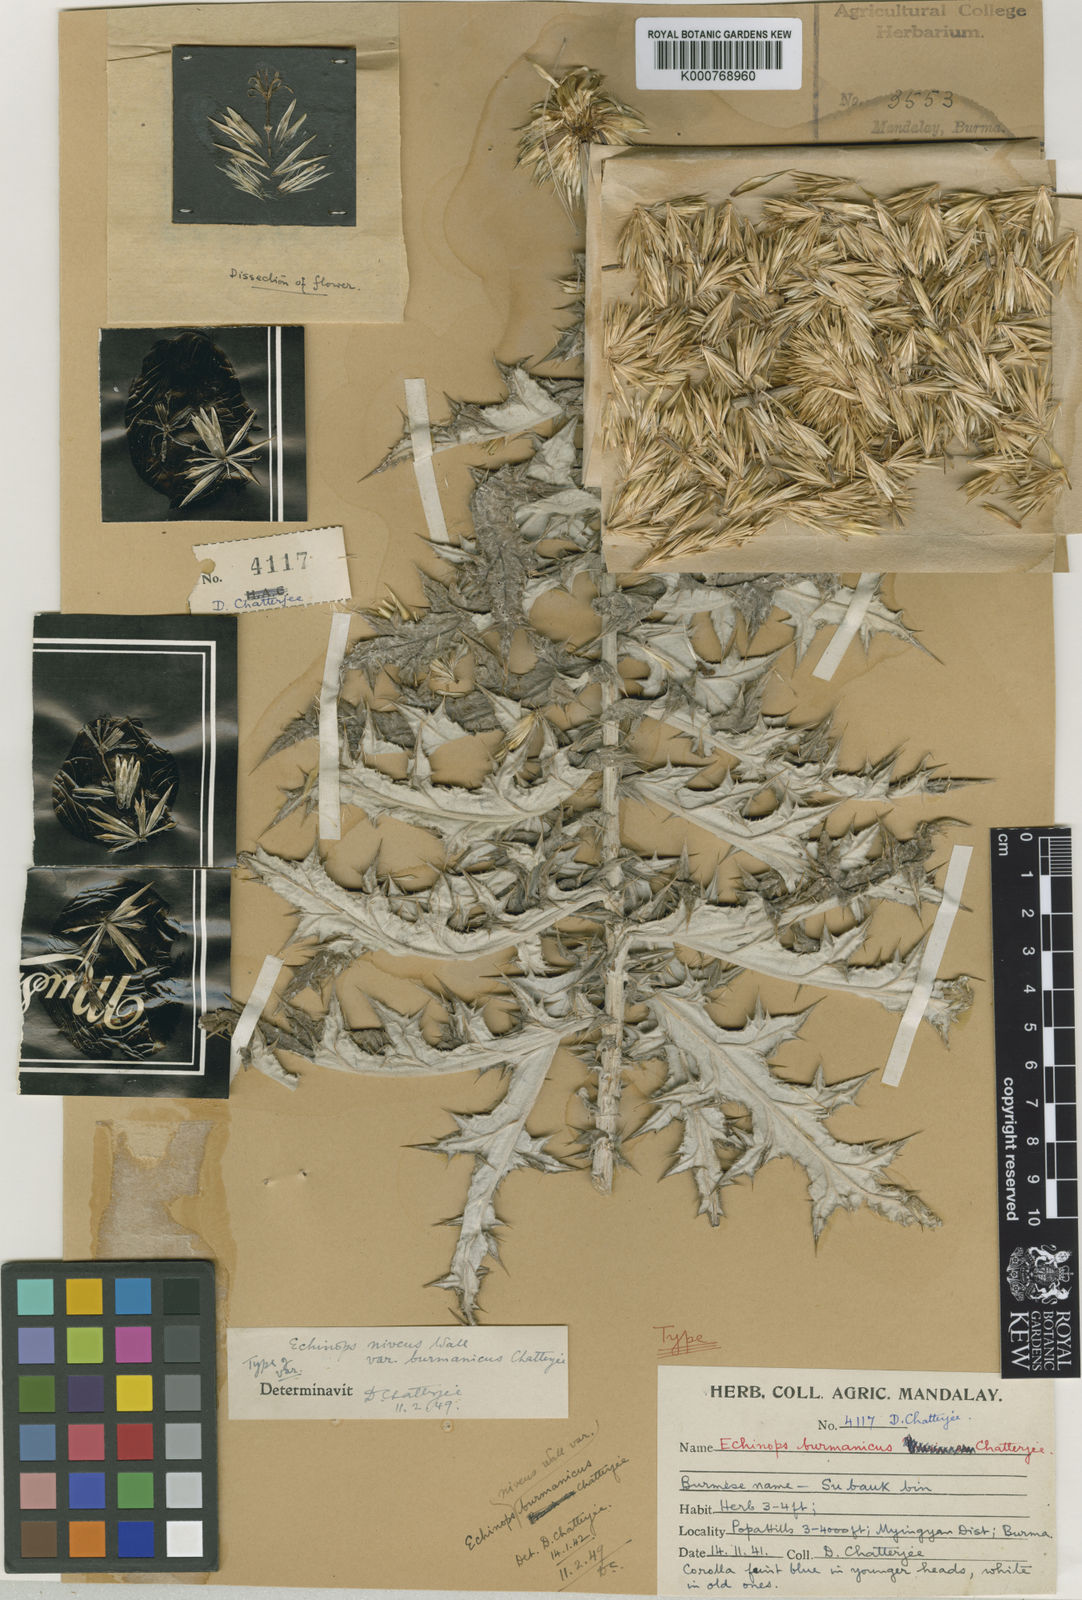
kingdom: Plantae
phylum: Tracheophyta
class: Magnoliopsida
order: Asterales
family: Asteraceae
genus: Echinops
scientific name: Echinops niveus
